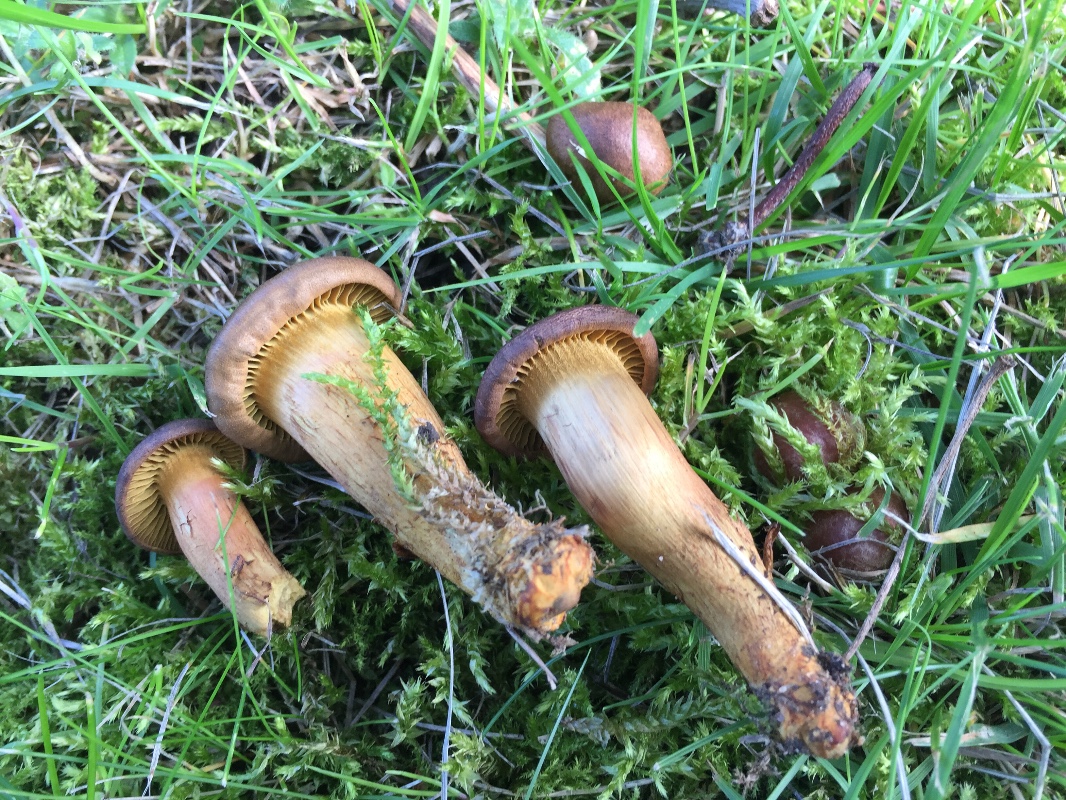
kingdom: Fungi
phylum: Basidiomycota
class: Agaricomycetes
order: Agaricales
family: Cortinariaceae
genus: Cortinarius
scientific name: Cortinarius olivaceofuscus
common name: olivenbrun slørhat
